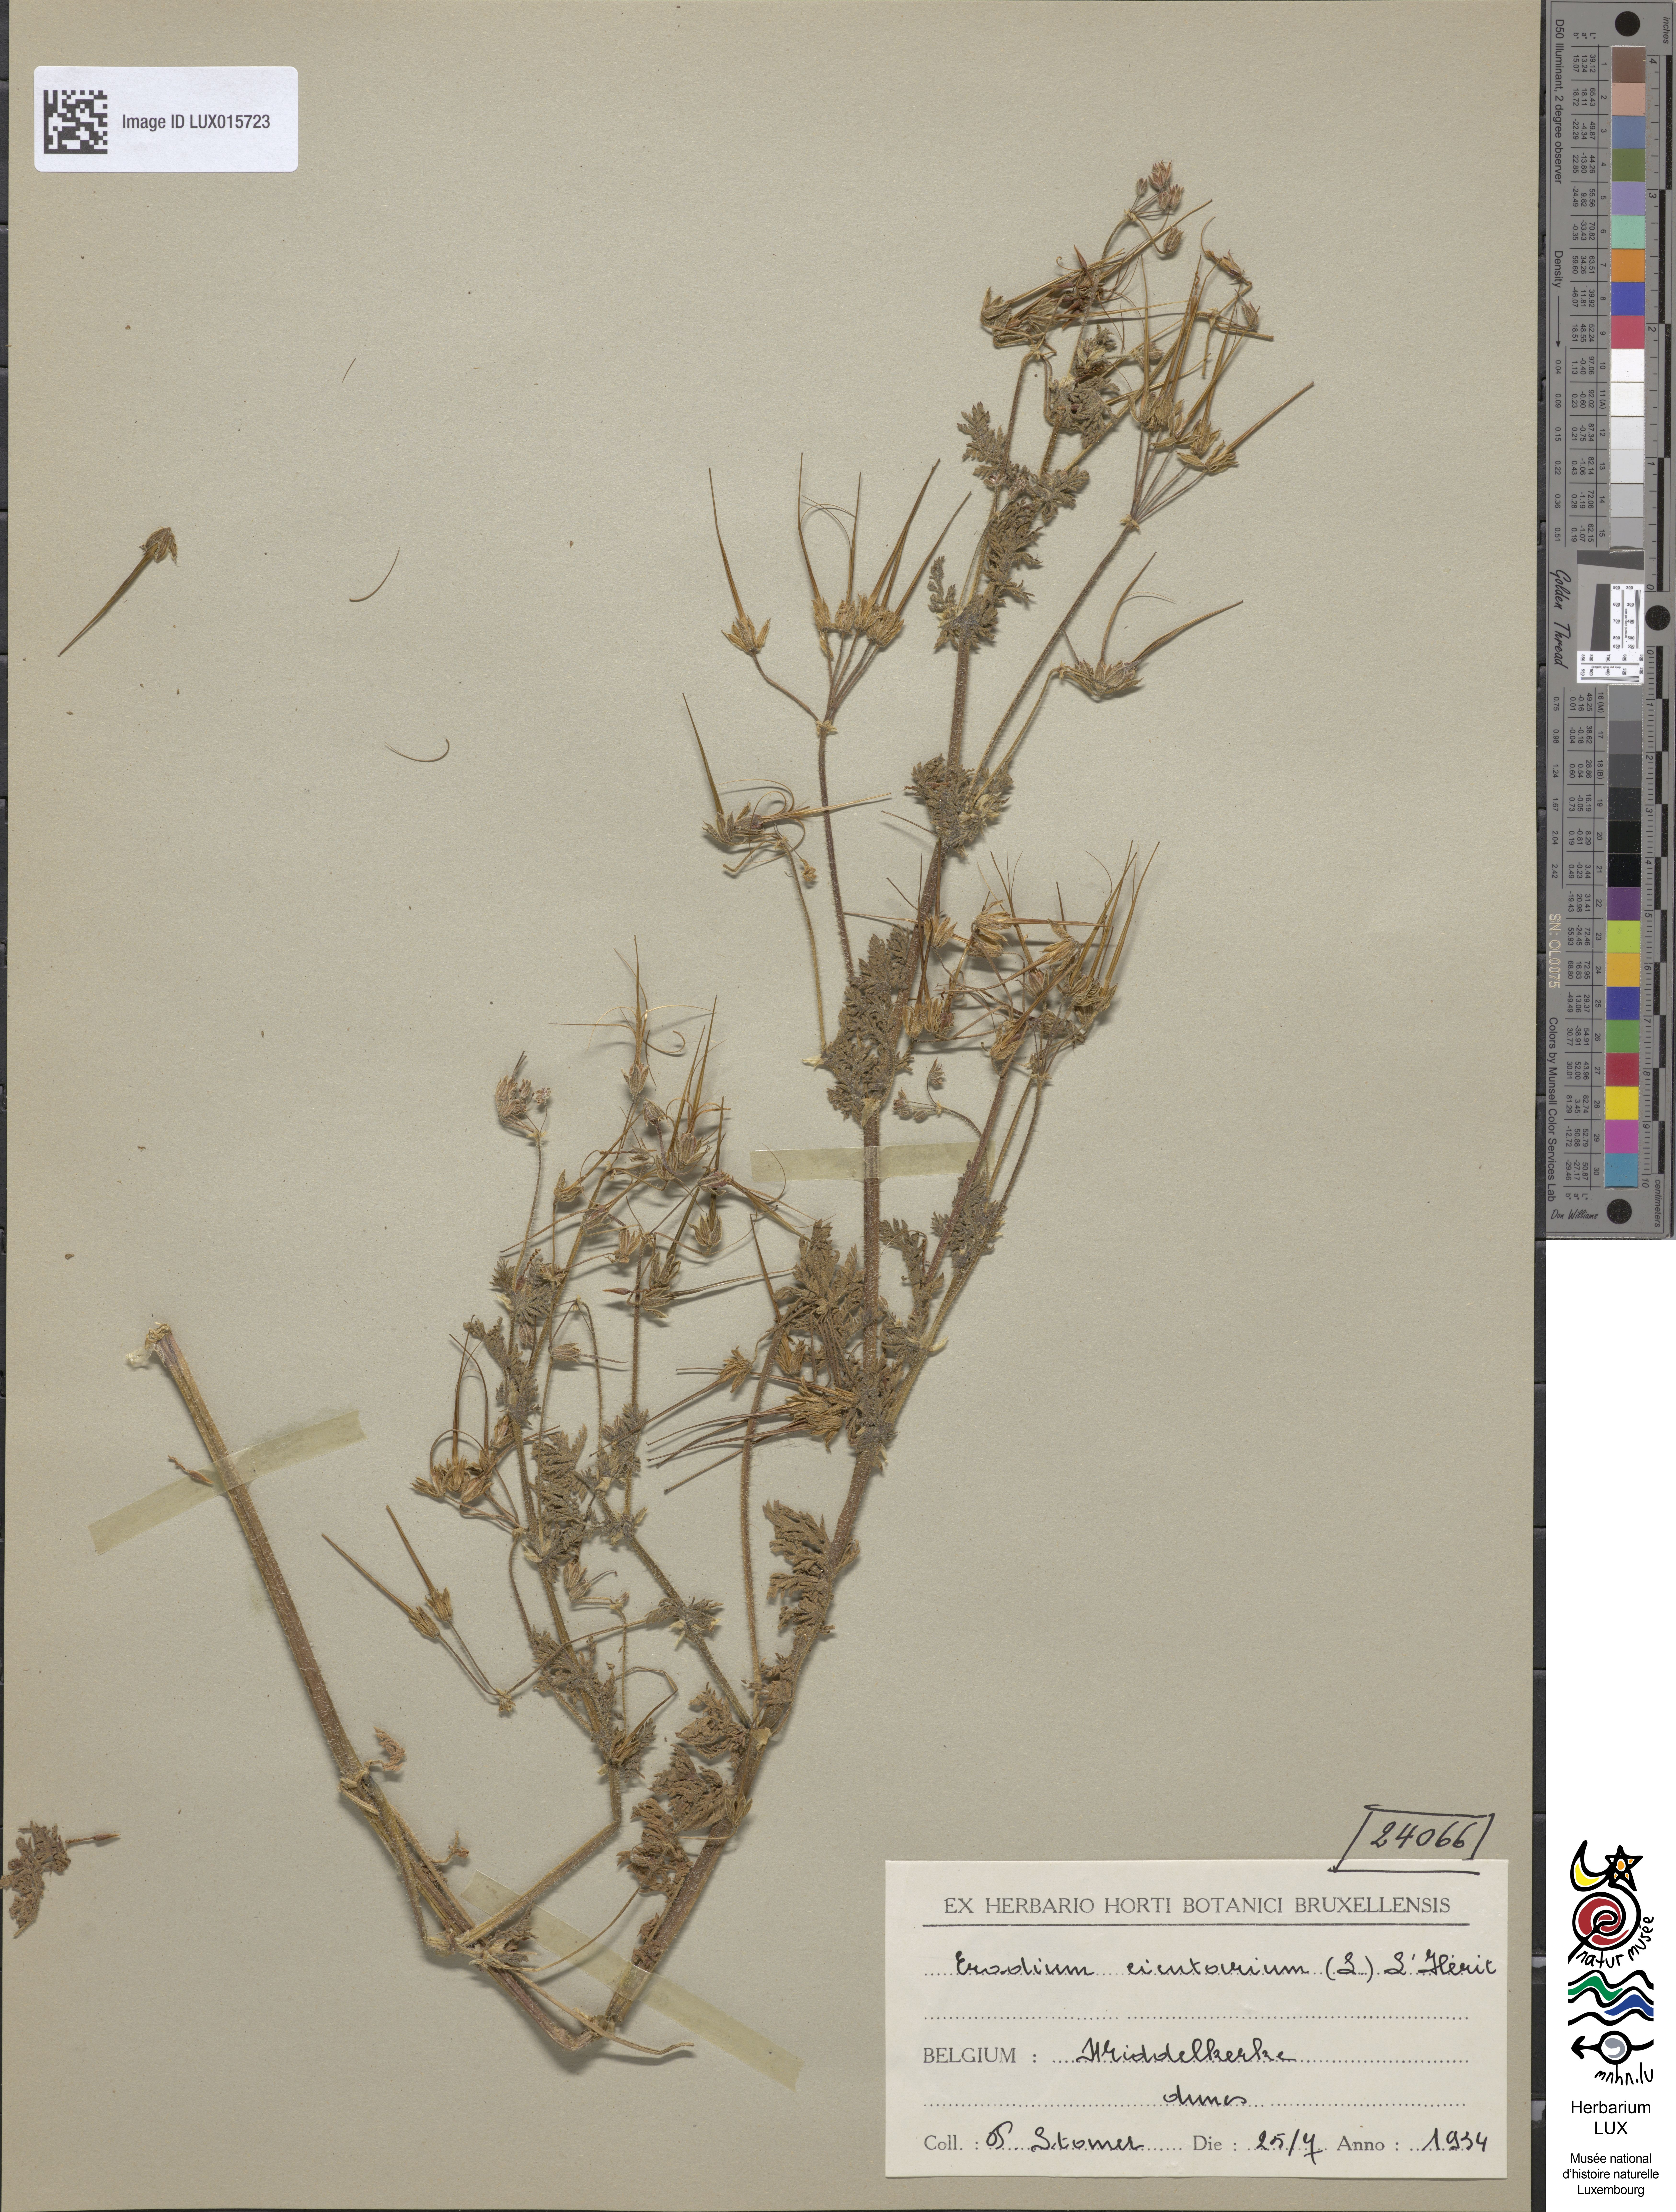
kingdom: Plantae
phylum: Tracheophyta
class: Magnoliopsida
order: Geraniales
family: Geraniaceae
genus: Erodium
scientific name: Erodium cicutarium
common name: Common stork's-bill
